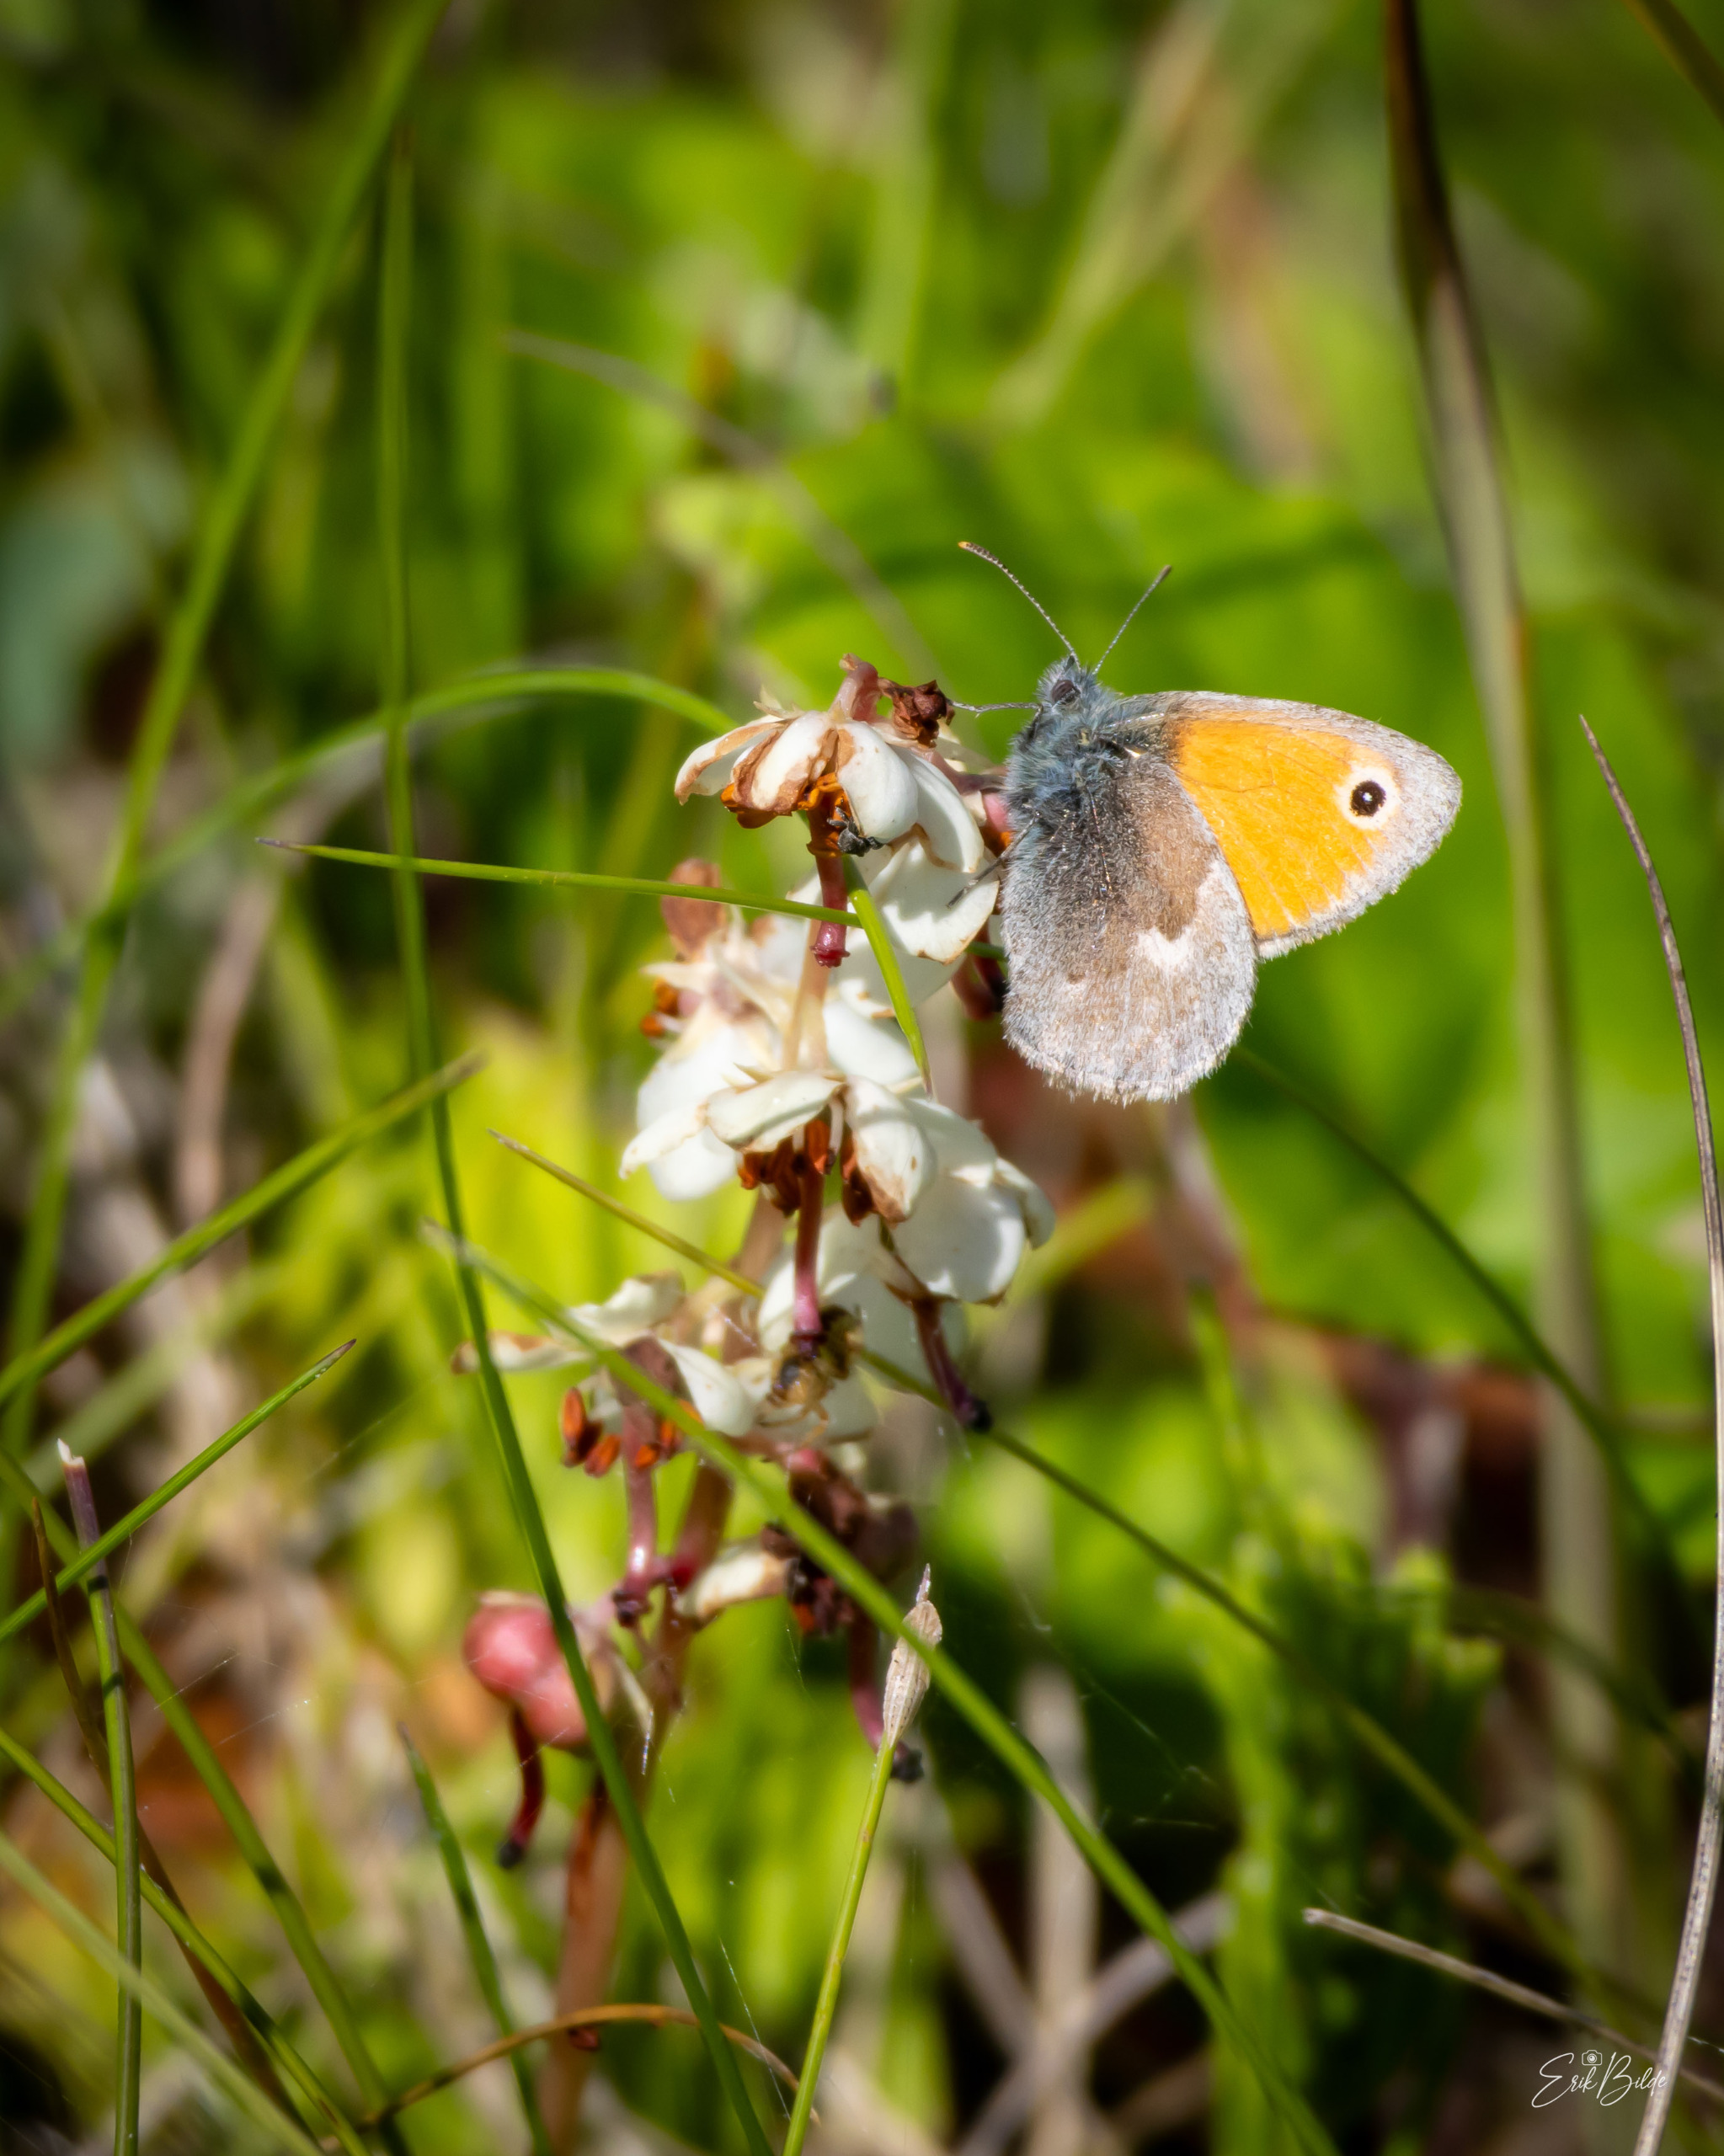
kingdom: Animalia
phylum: Arthropoda
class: Insecta
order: Lepidoptera
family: Nymphalidae
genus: Coenonympha
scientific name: Coenonympha pamphilus
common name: Okkergul randøje
